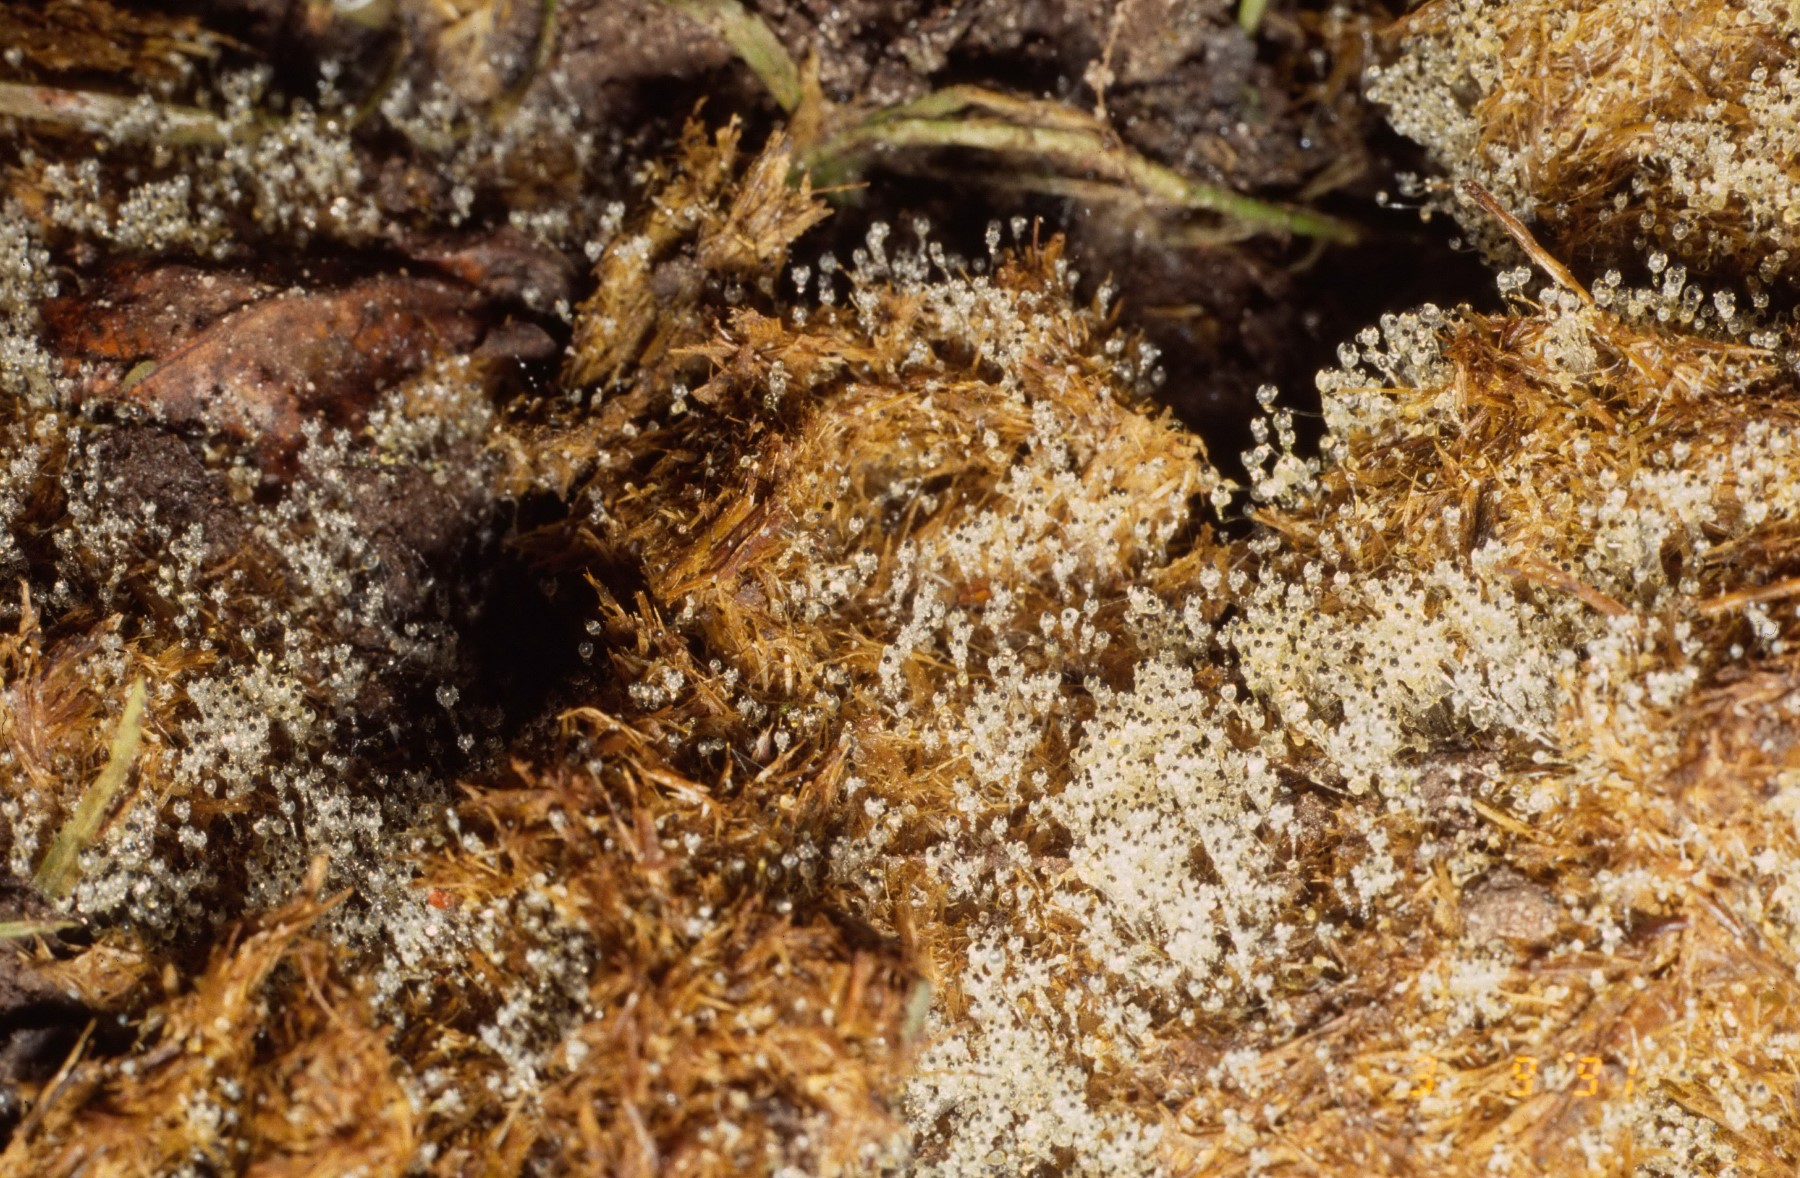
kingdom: Fungi
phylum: Mucoromycota
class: Mucoromycetes
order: Mucorales
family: Pilobolaceae
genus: Pilobolus
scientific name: Pilobolus
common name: boldkaster
